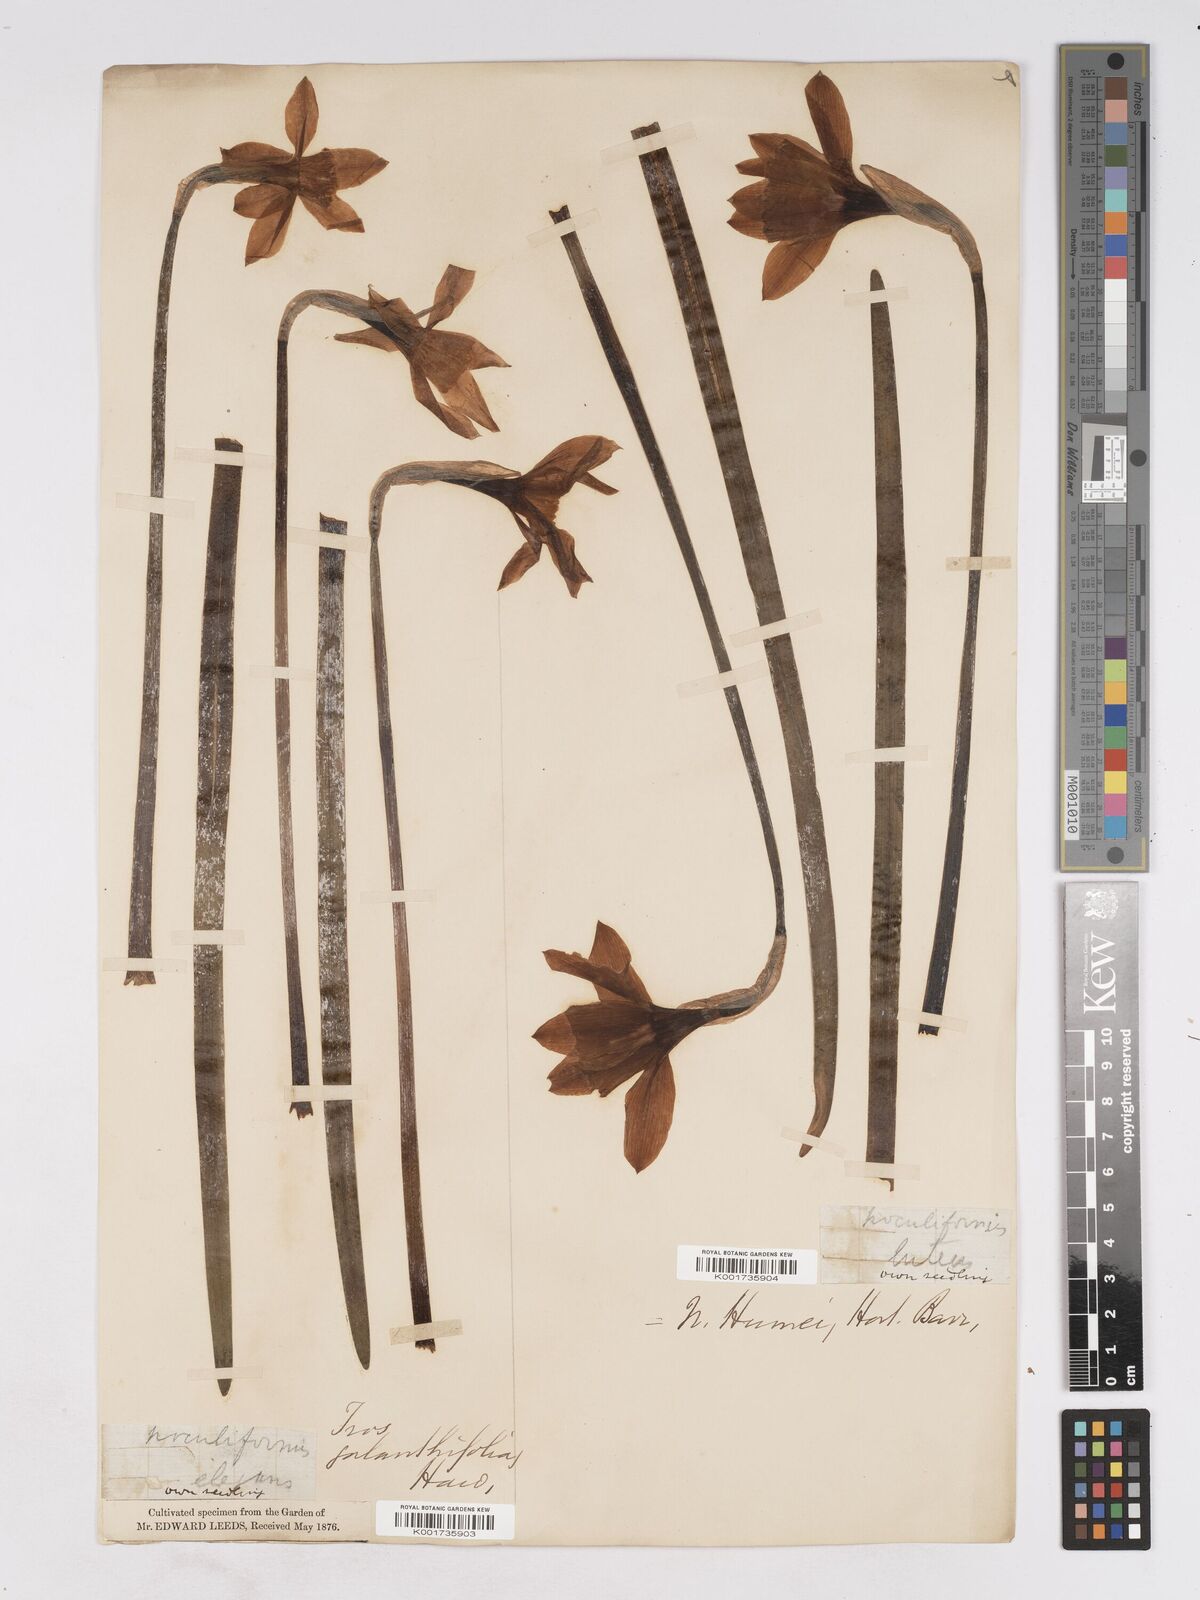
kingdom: Plantae
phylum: Tracheophyta
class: Liliopsida
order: Asparagales
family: Amaryllidaceae
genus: Narcissus
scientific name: Narcissus incomparabilis
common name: Nonesuch daffodil
